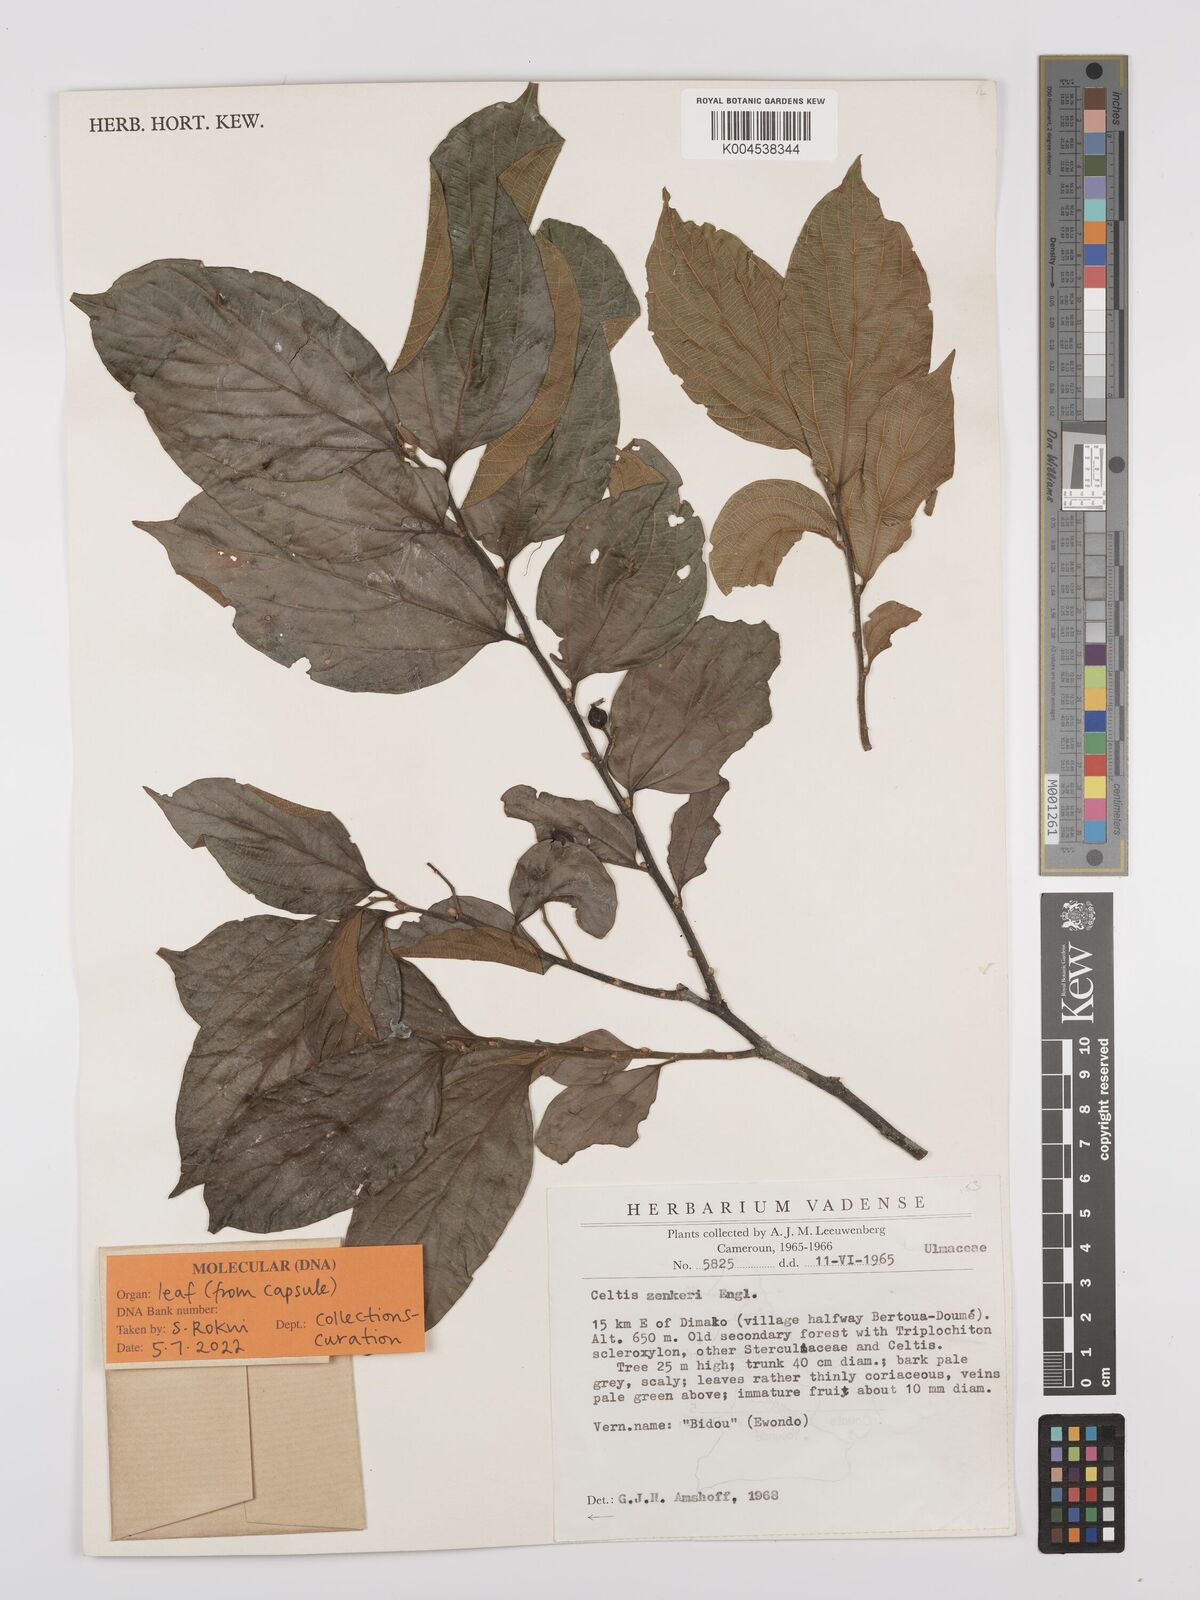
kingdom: Plantae
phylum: Tracheophyta
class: Magnoliopsida
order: Rosales
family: Cannabaceae
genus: Celtis
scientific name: Celtis zenkeri
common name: African celtis
